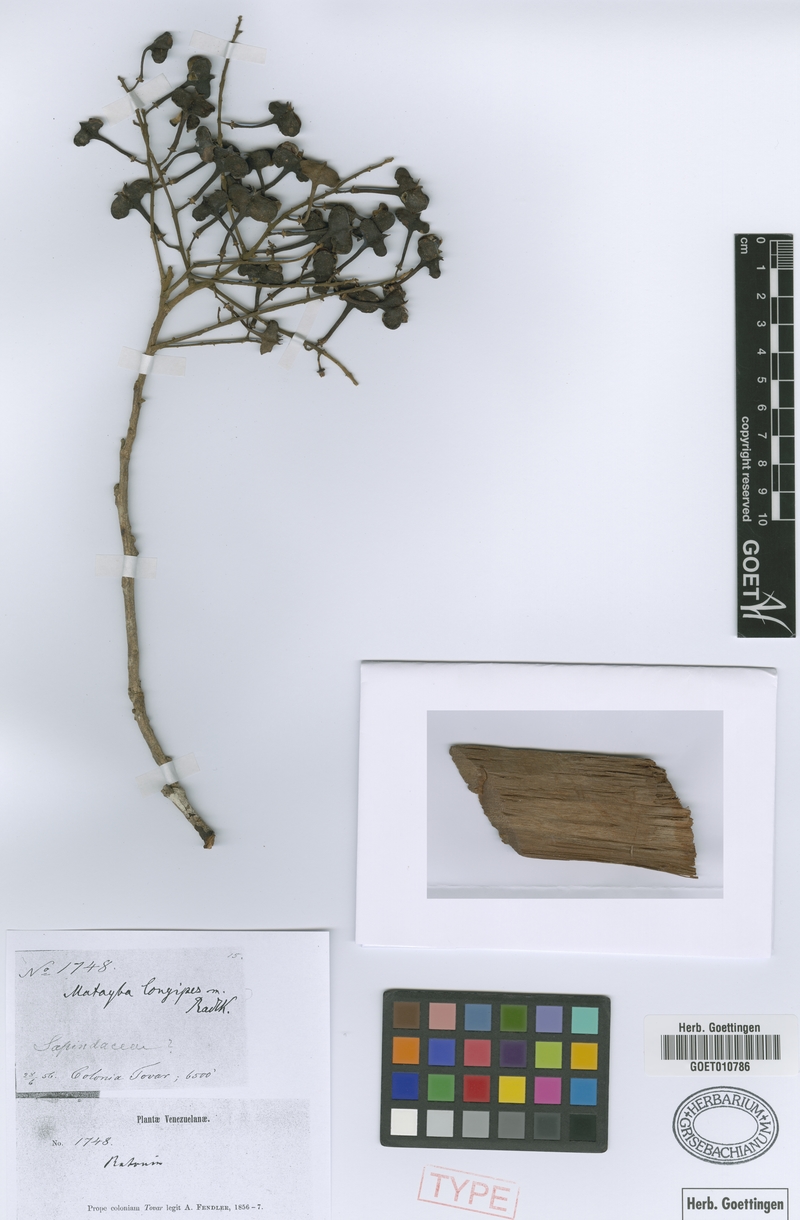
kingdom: Plantae
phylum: Tracheophyta
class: Magnoliopsida
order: Sapindales
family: Sapindaceae
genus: Matayba
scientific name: Matayba longipes
